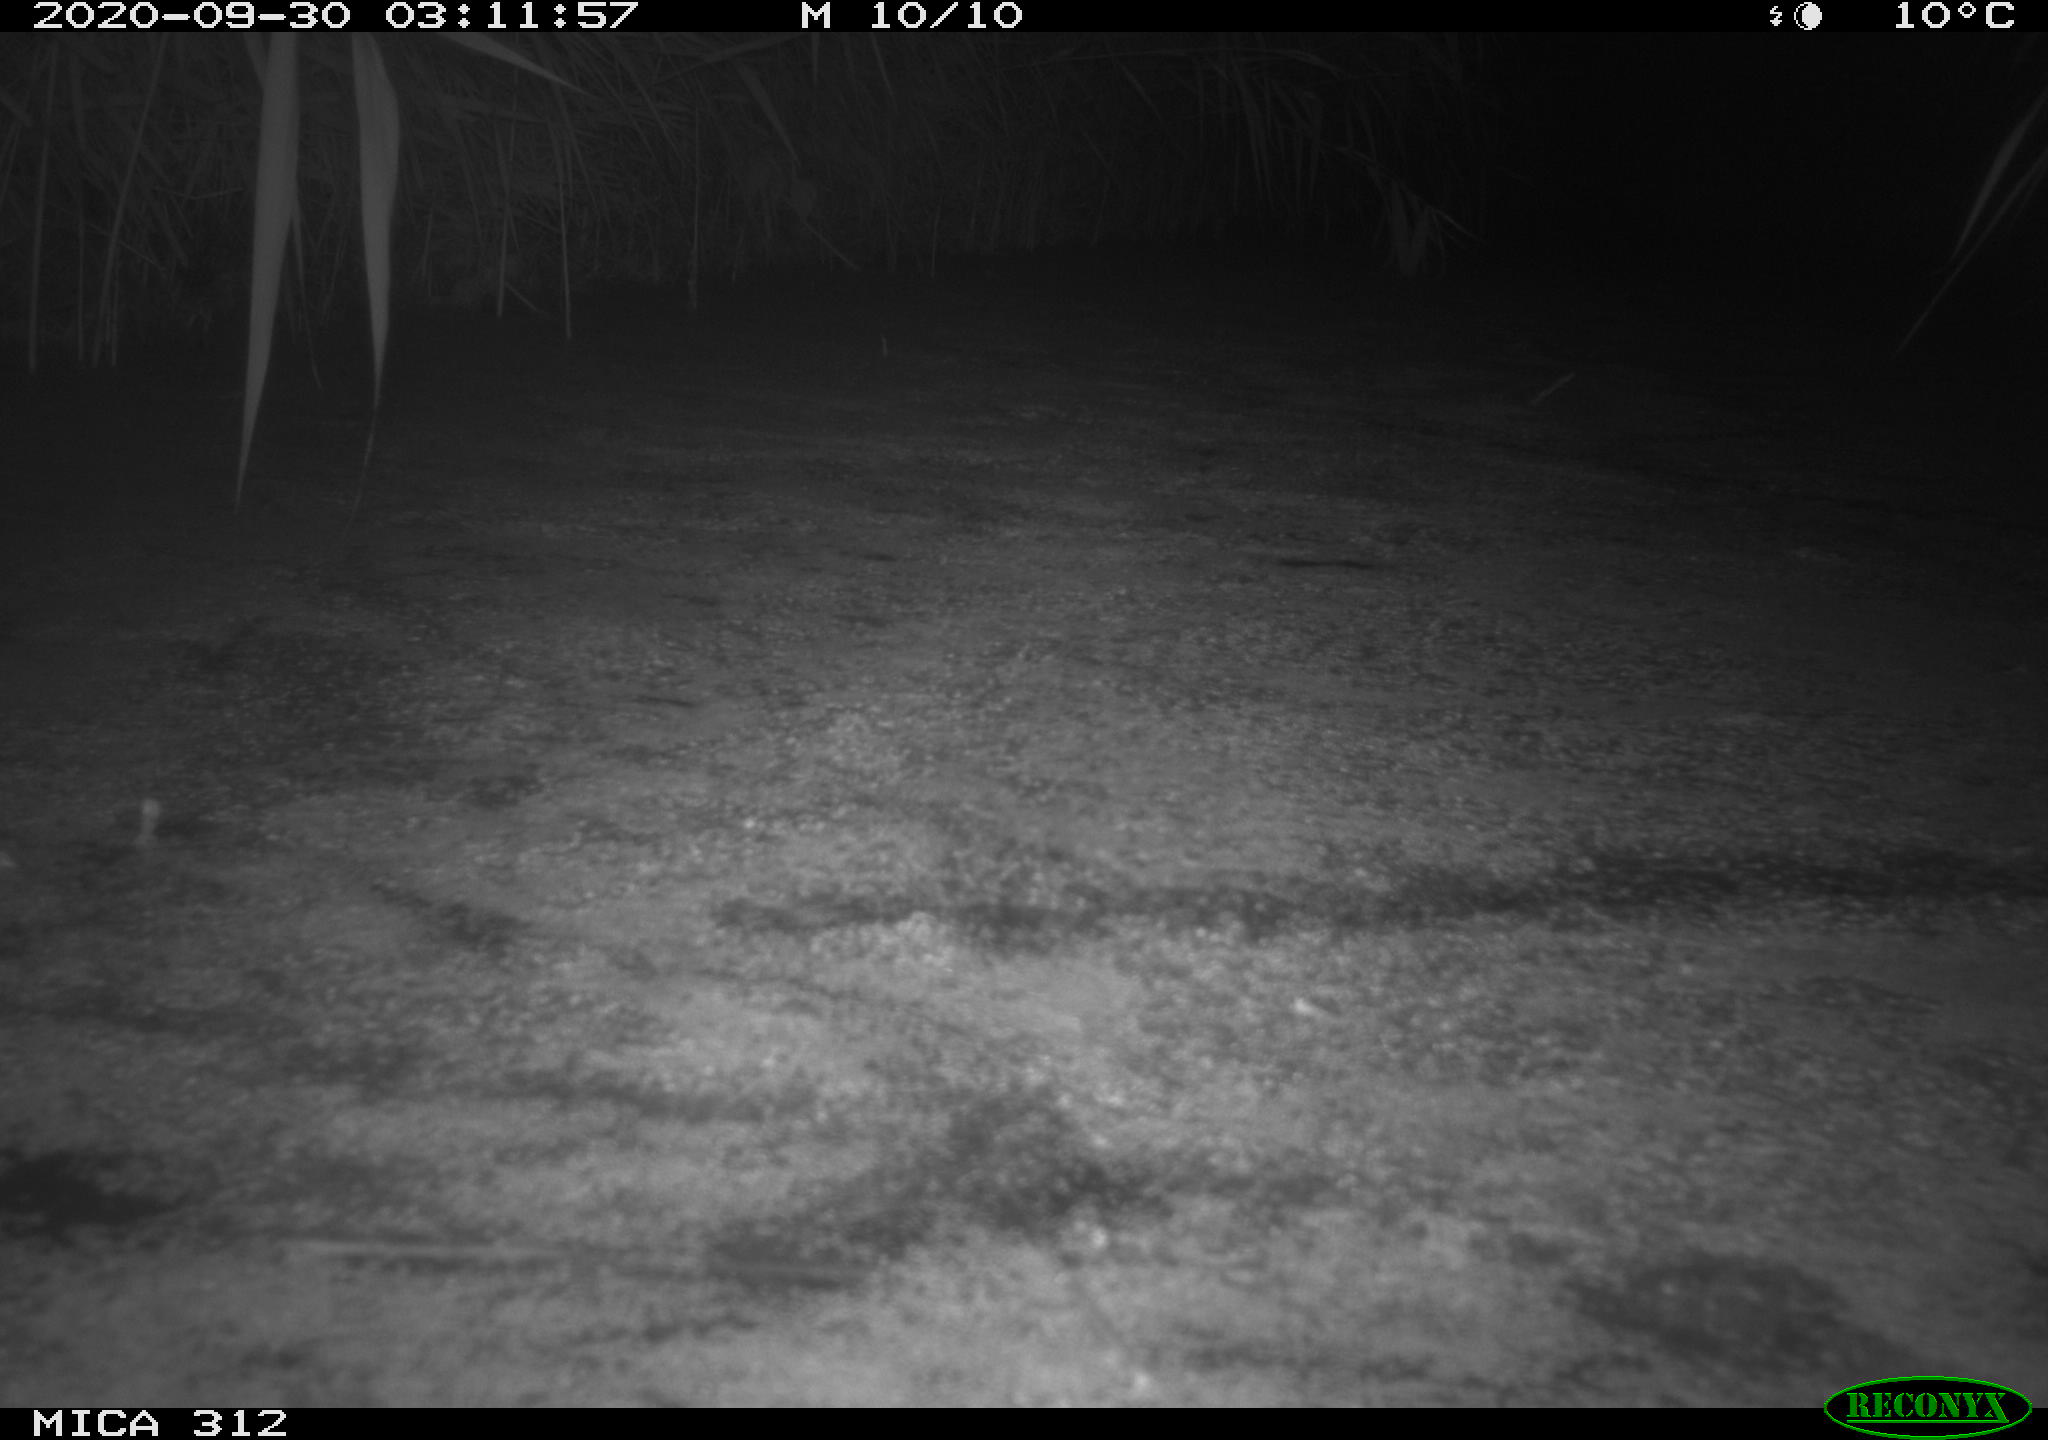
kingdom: Animalia
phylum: Chordata
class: Mammalia
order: Rodentia
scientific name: Rodentia
